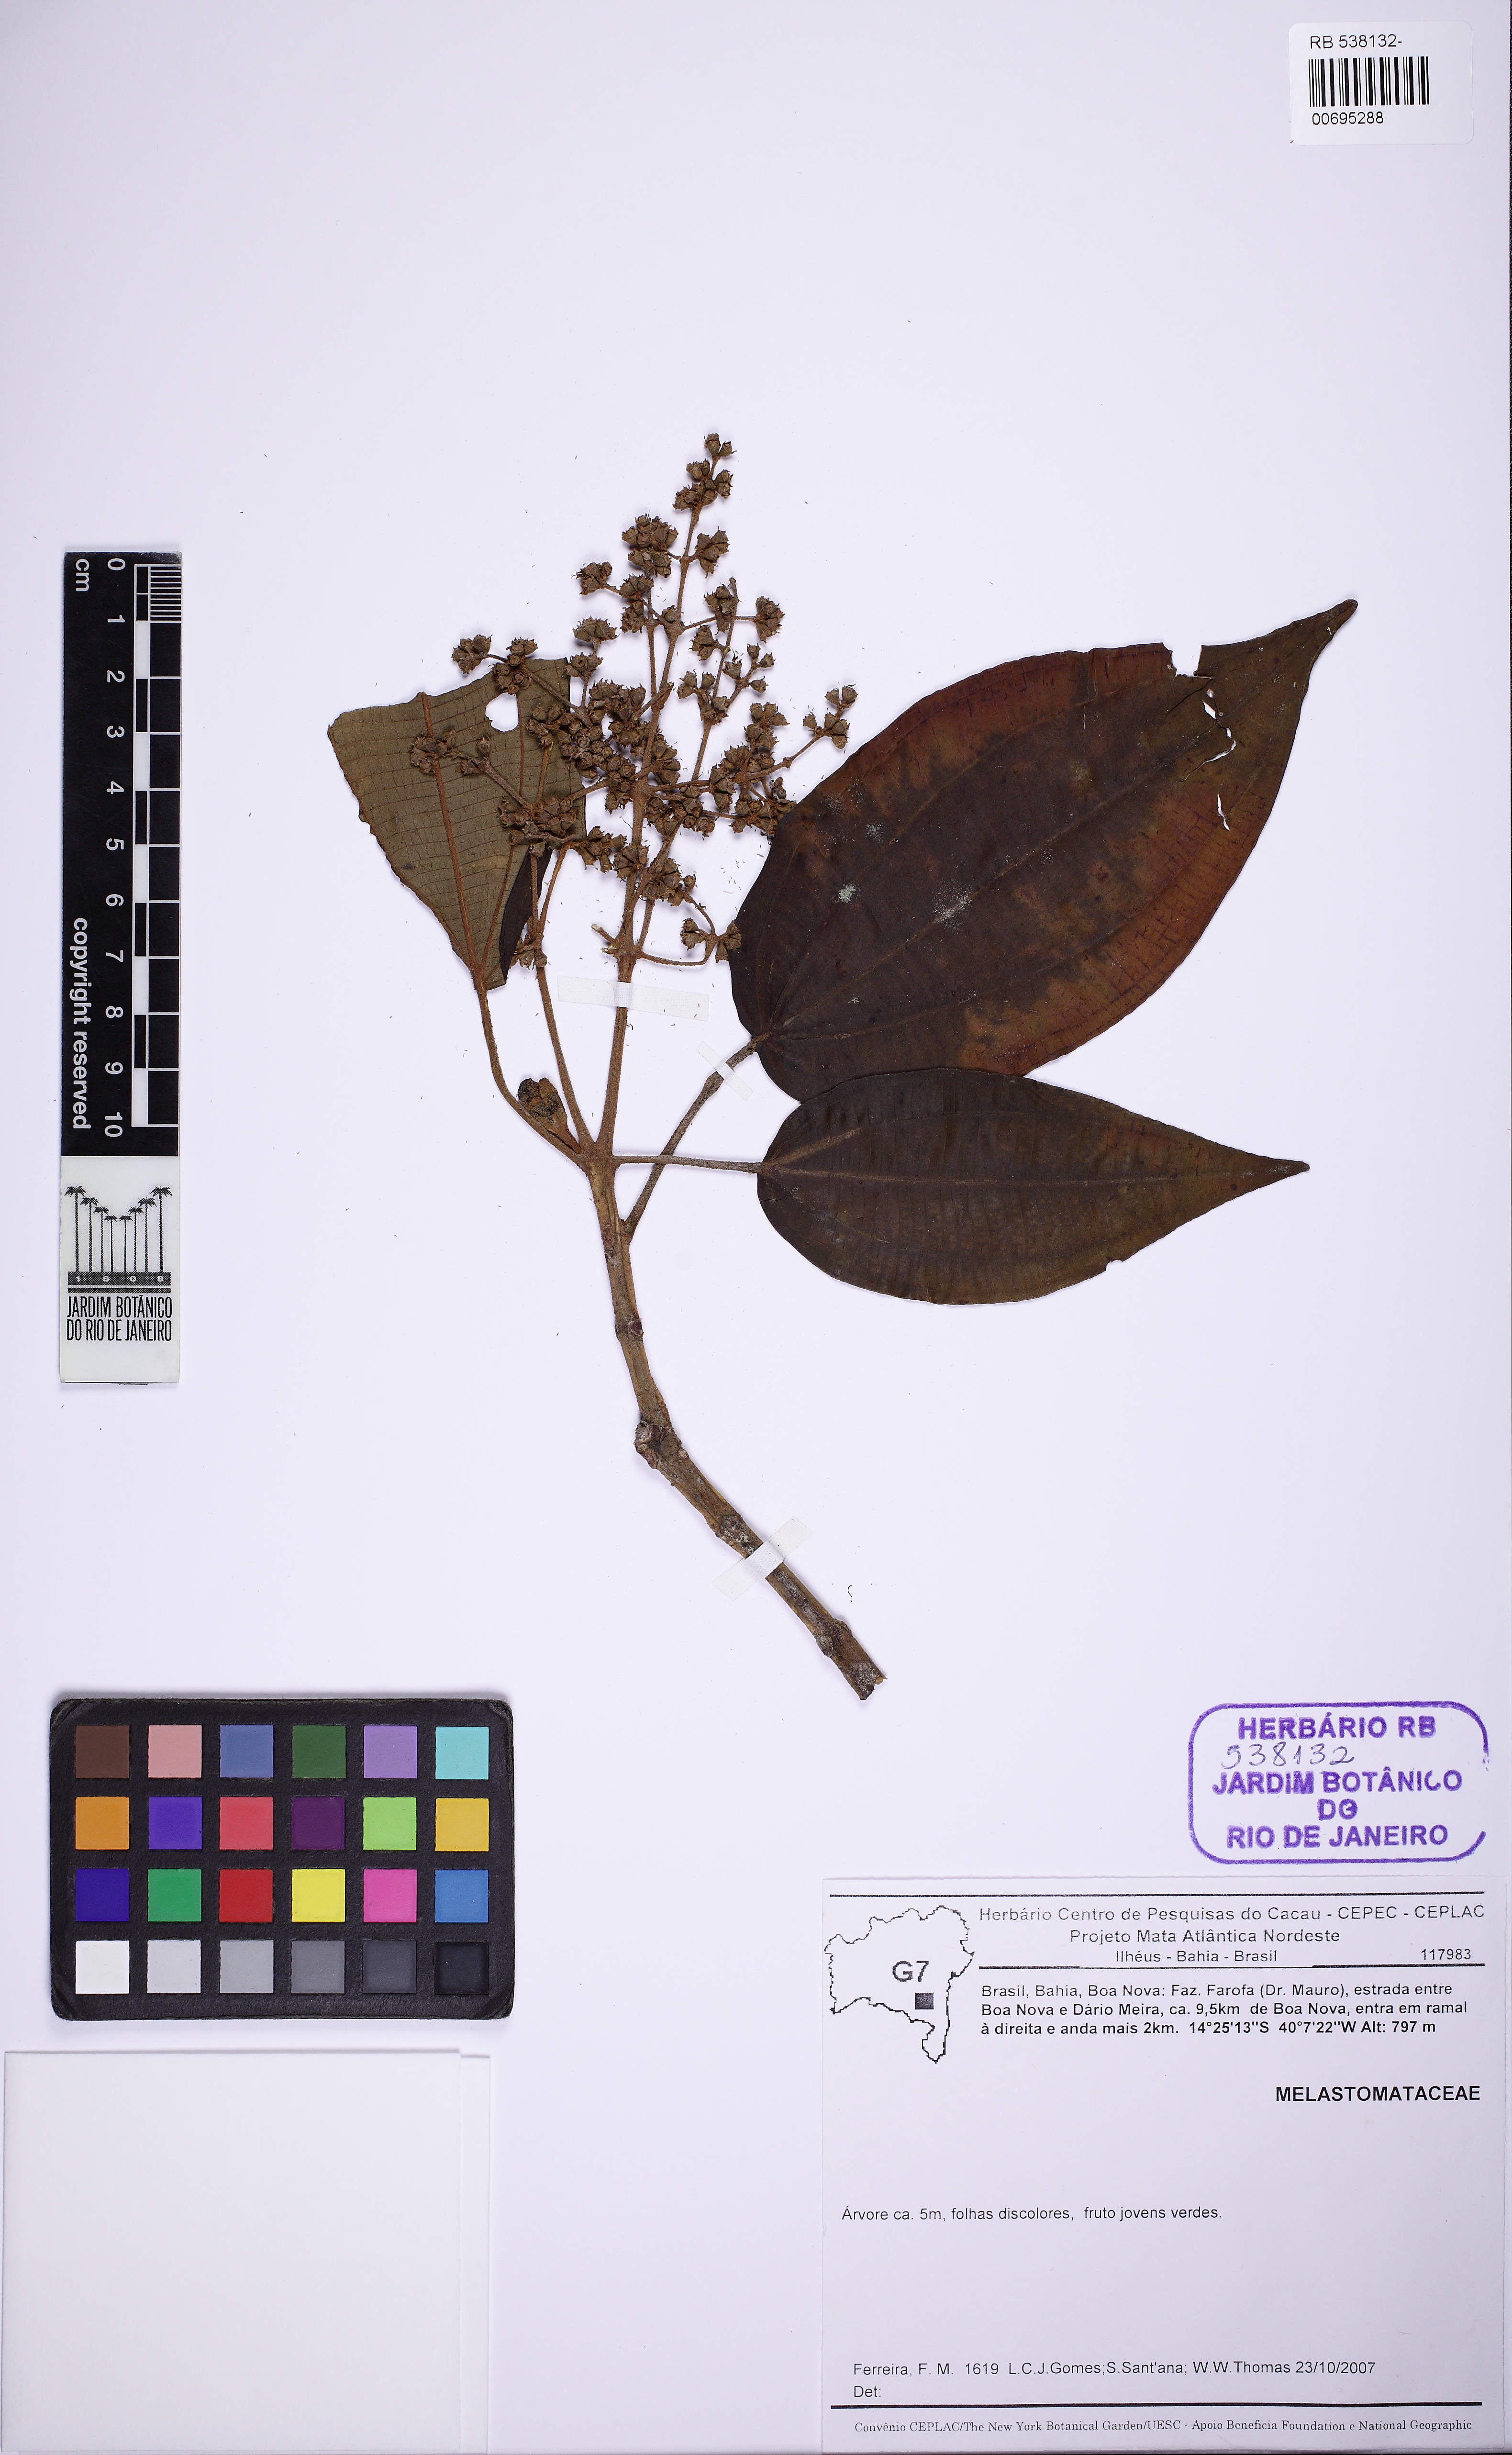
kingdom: Plantae
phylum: Tracheophyta
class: Magnoliopsida
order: Myrtales
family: Melastomataceae
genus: Graffenrieda
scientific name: Graffenrieda intermedia
